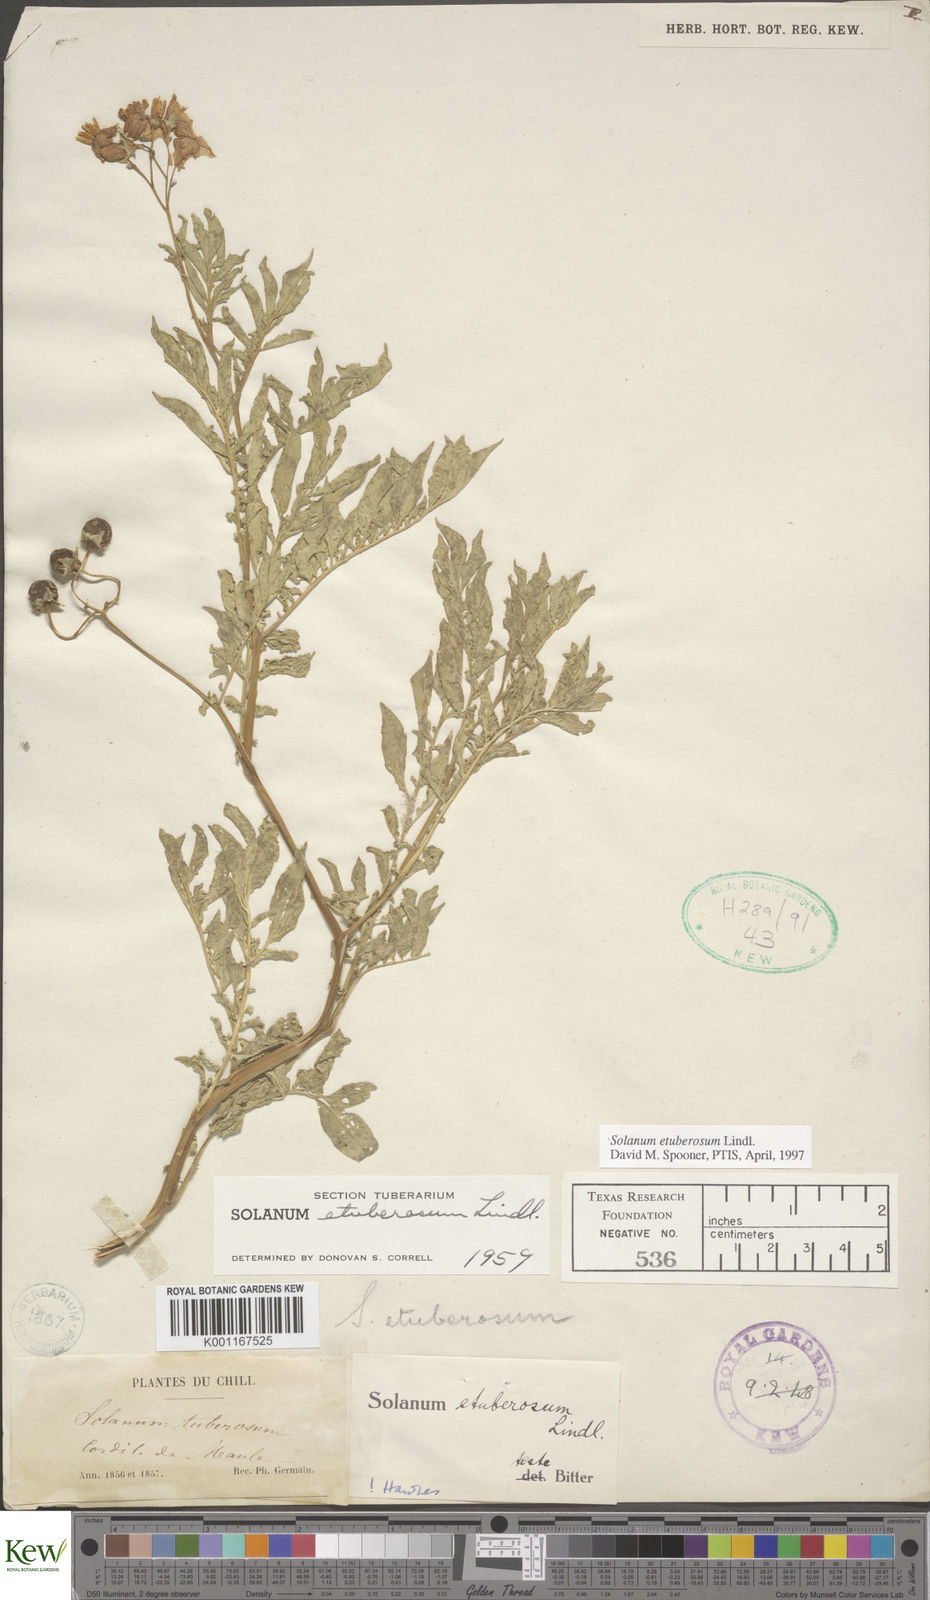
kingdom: Plantae
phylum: Tracheophyta
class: Magnoliopsida
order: Solanales
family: Solanaceae
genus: Solanum
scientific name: Solanum etuberosum
